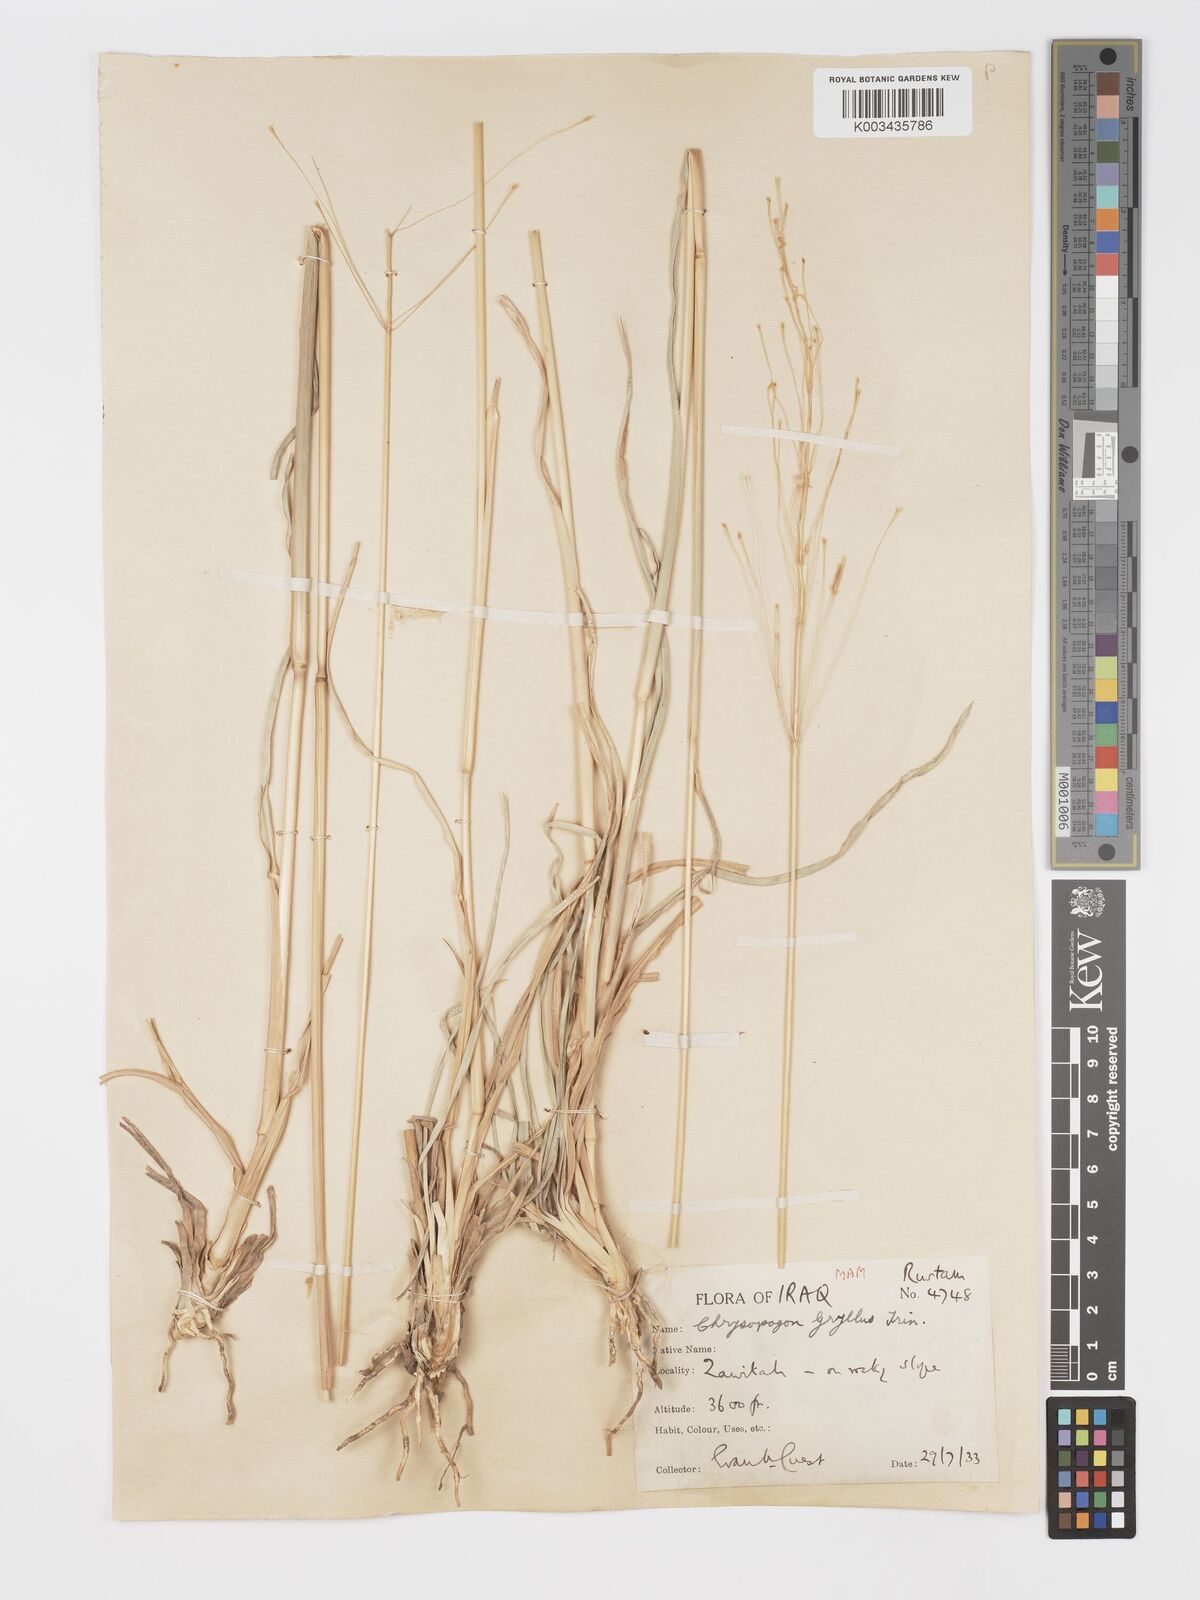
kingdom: Plantae
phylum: Tracheophyta
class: Liliopsida
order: Poales
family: Poaceae
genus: Chrysopogon
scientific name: Chrysopogon gryllus
